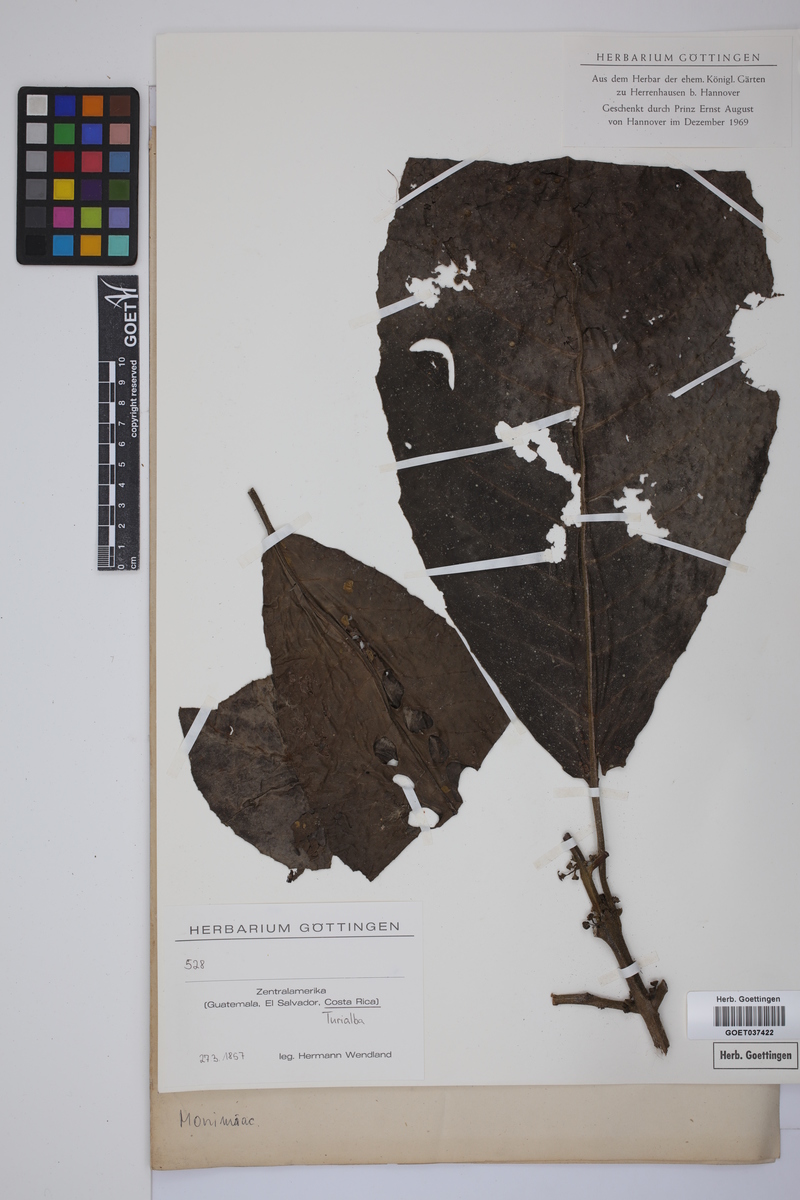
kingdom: Plantae
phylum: Tracheophyta
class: Magnoliopsida
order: Laurales
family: Siparunaceae
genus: Siparuna
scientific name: Siparuna
